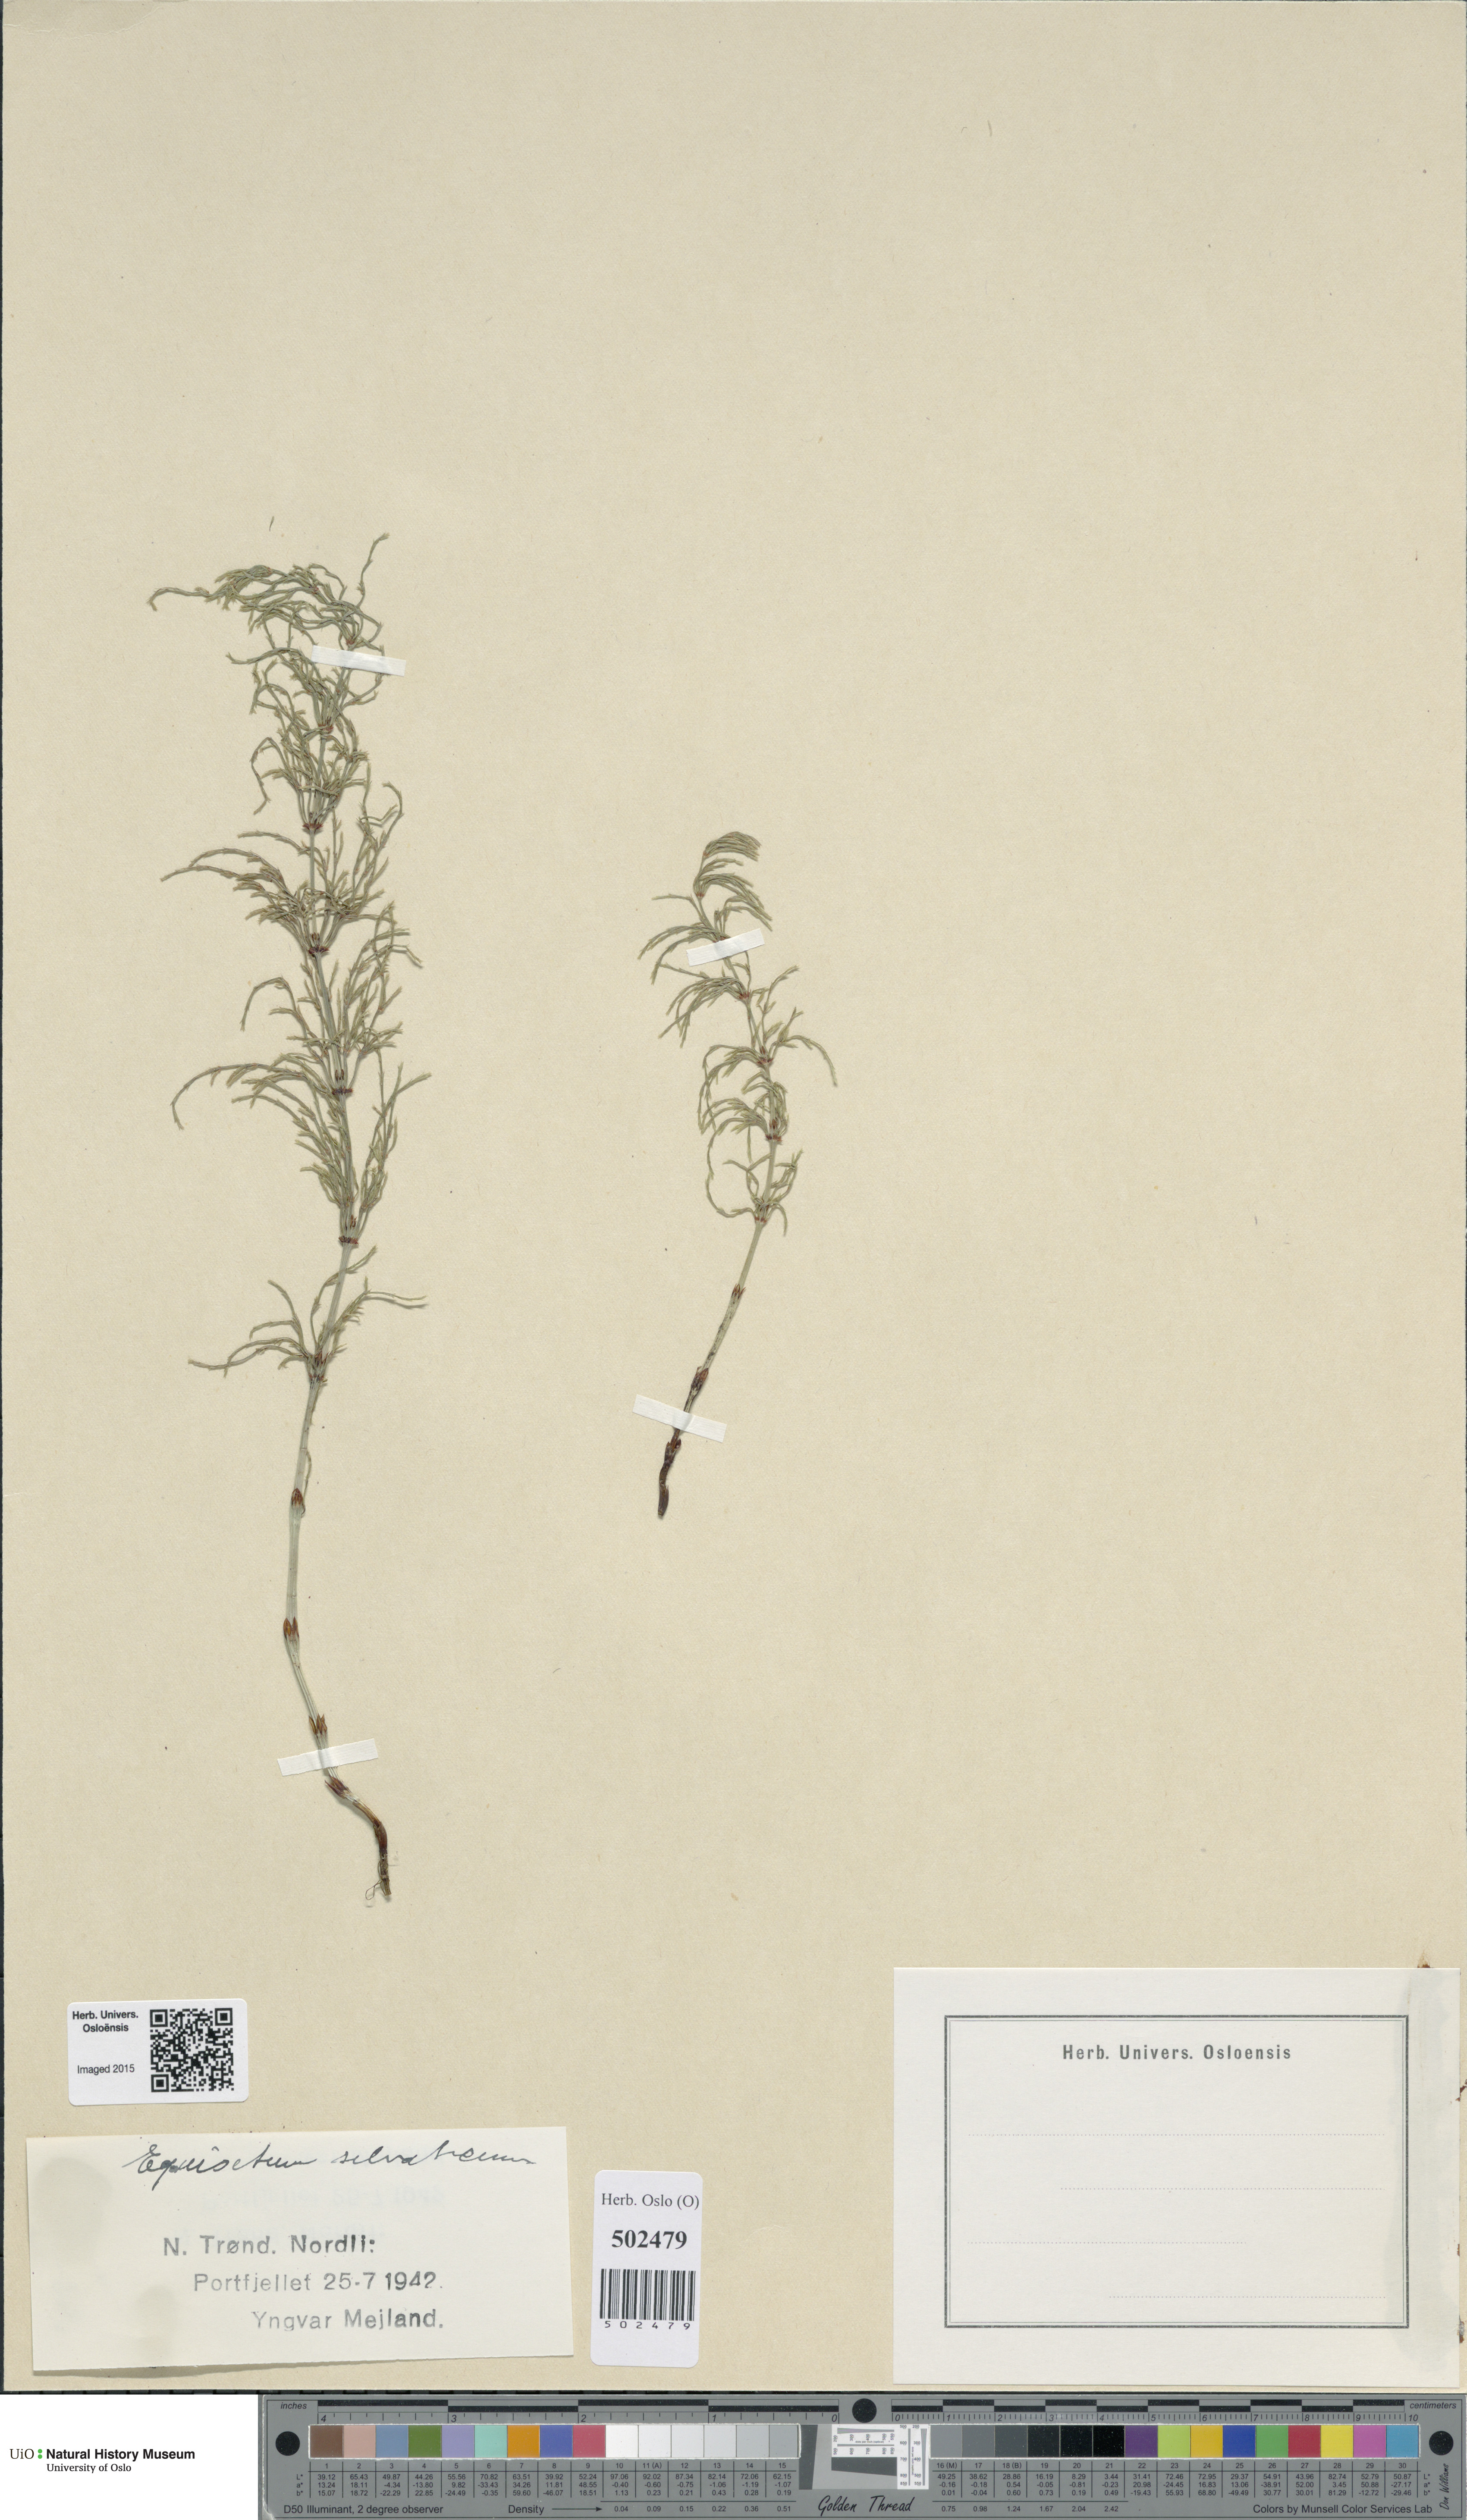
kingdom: Plantae
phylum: Tracheophyta
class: Polypodiopsida
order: Equisetales
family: Equisetaceae
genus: Equisetum
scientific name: Equisetum sylvaticum
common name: Wood horsetail
